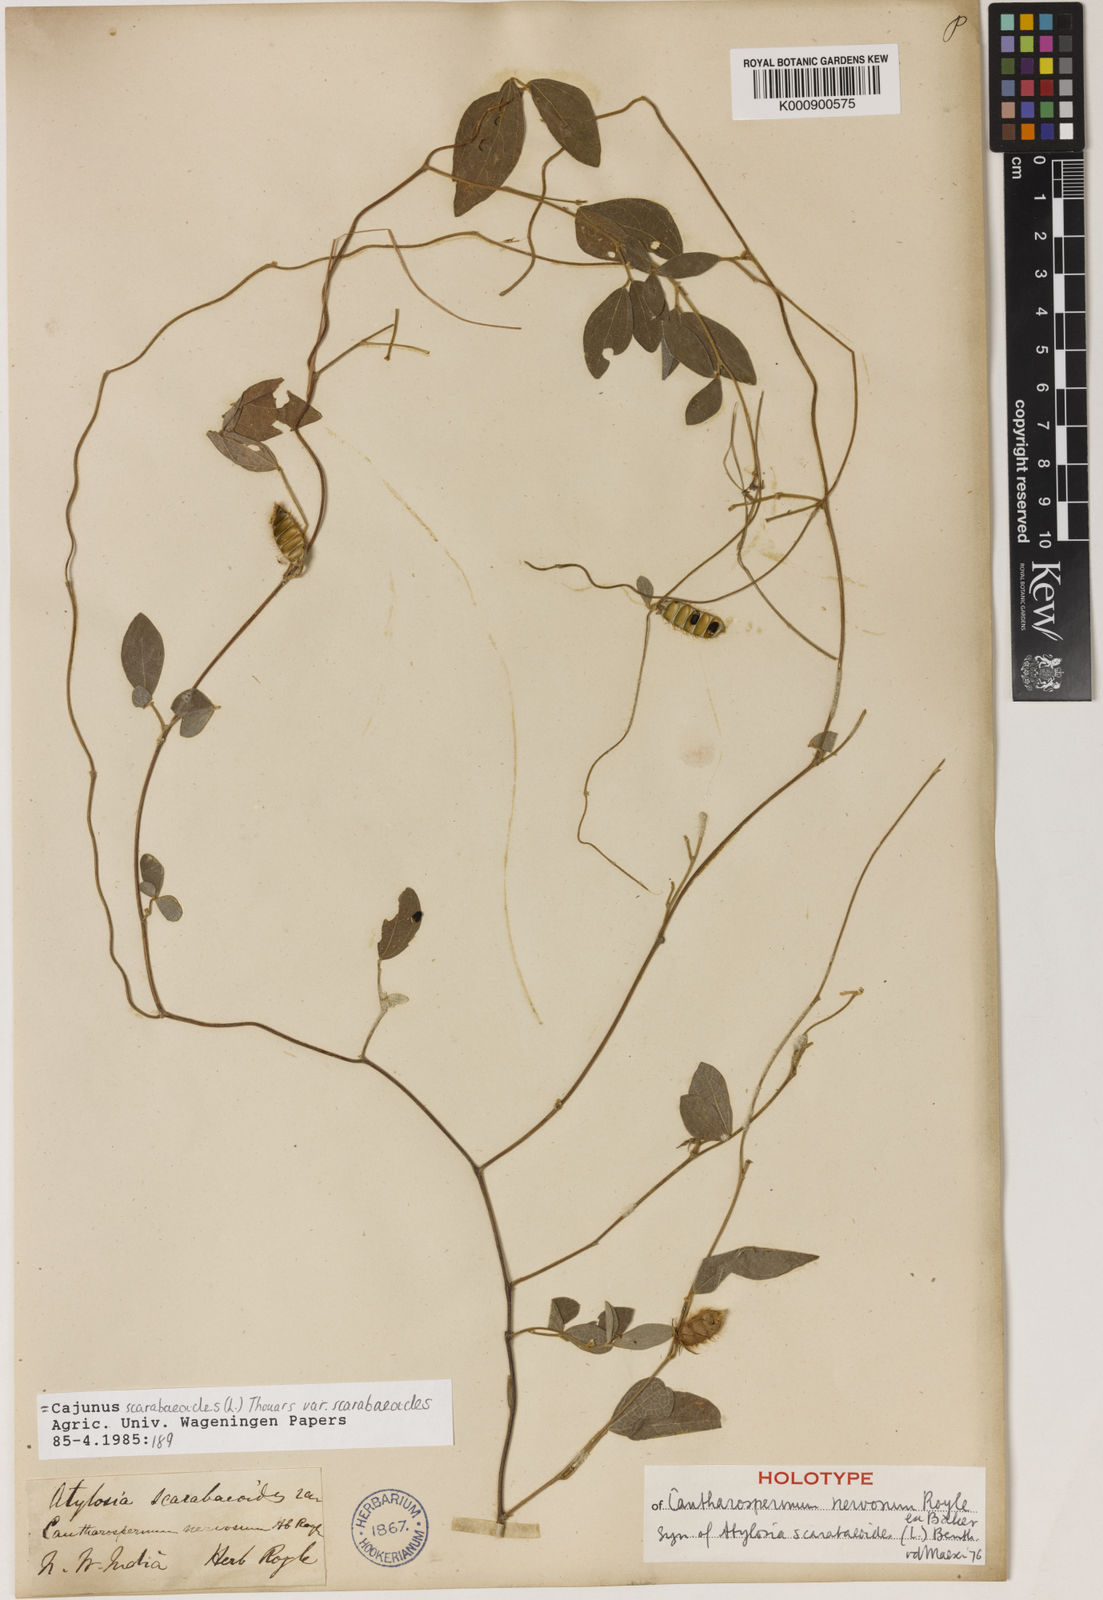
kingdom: Plantae
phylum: Tracheophyta
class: Magnoliopsida
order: Fabales
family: Fabaceae
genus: Cajanus
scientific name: Cajanus
